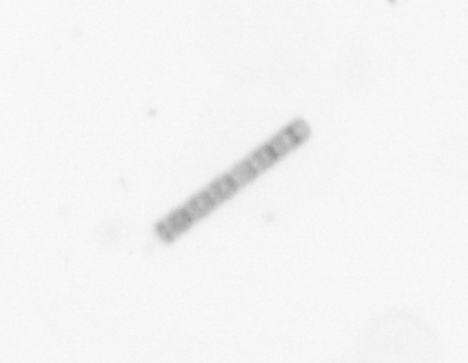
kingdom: Chromista
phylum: Ochrophyta
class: Bacillariophyceae
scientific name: Bacillariophyceae
